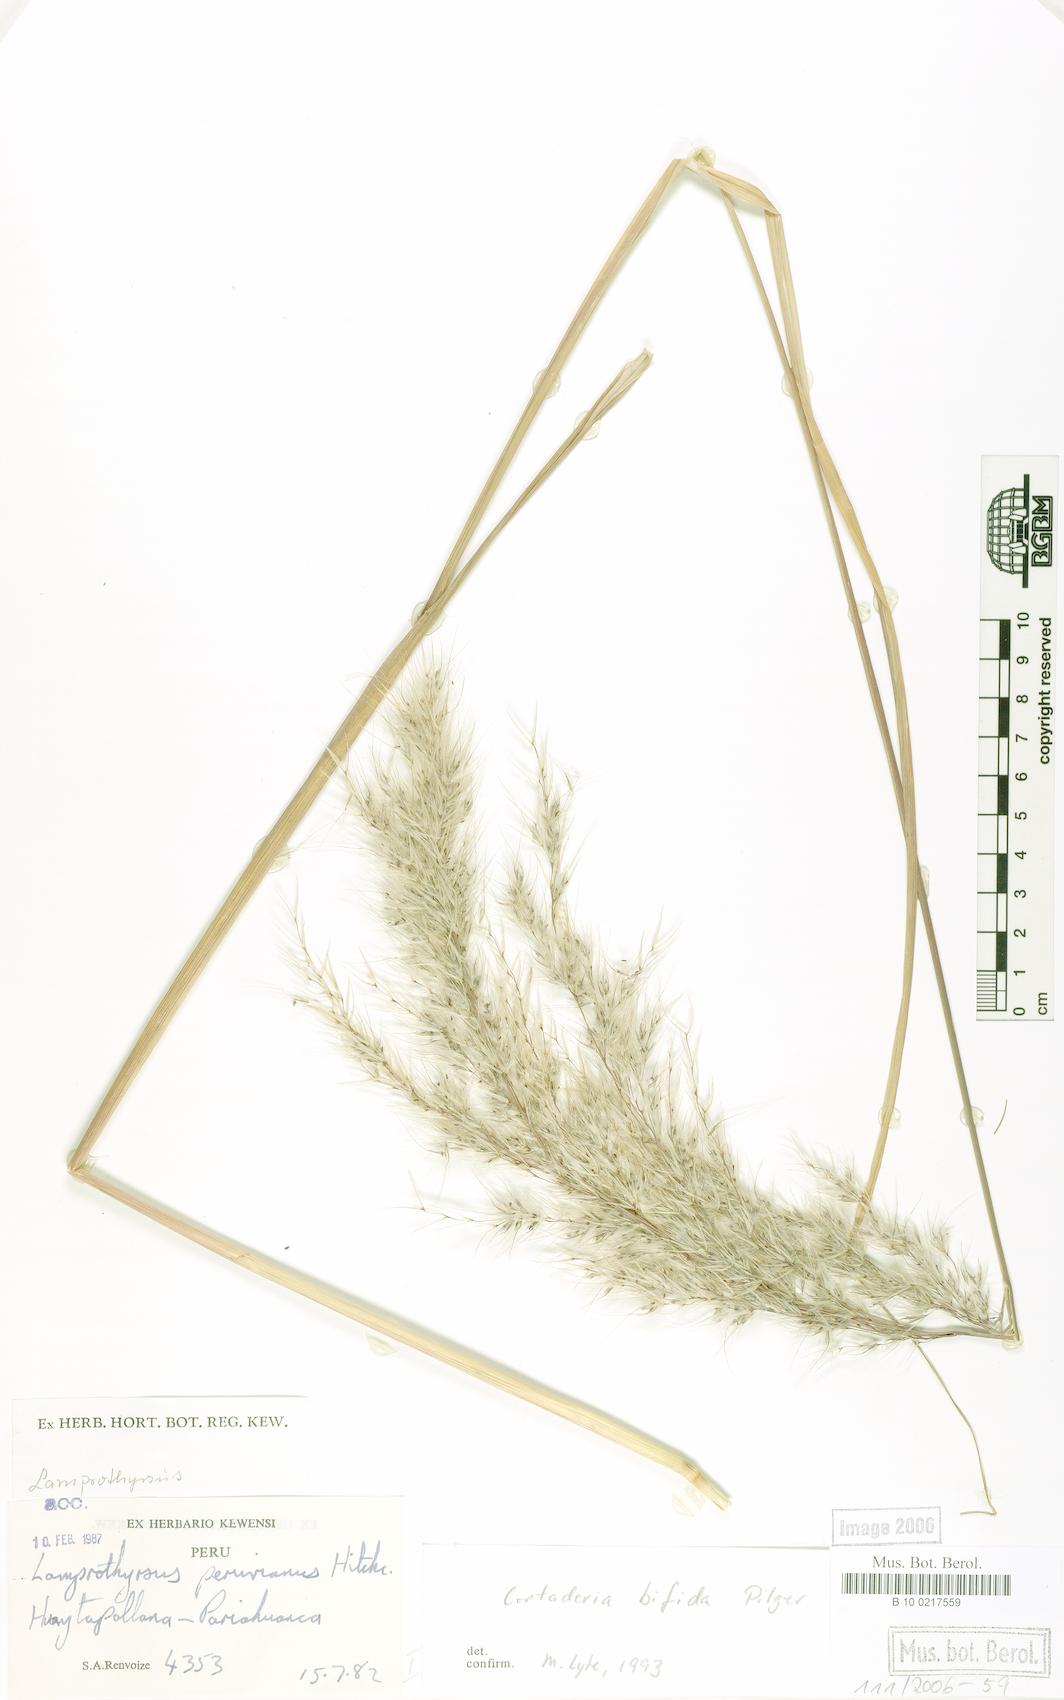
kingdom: Plantae
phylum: Tracheophyta
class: Liliopsida
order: Poales
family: Poaceae
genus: Cortaderia
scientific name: Cortaderia bifida
